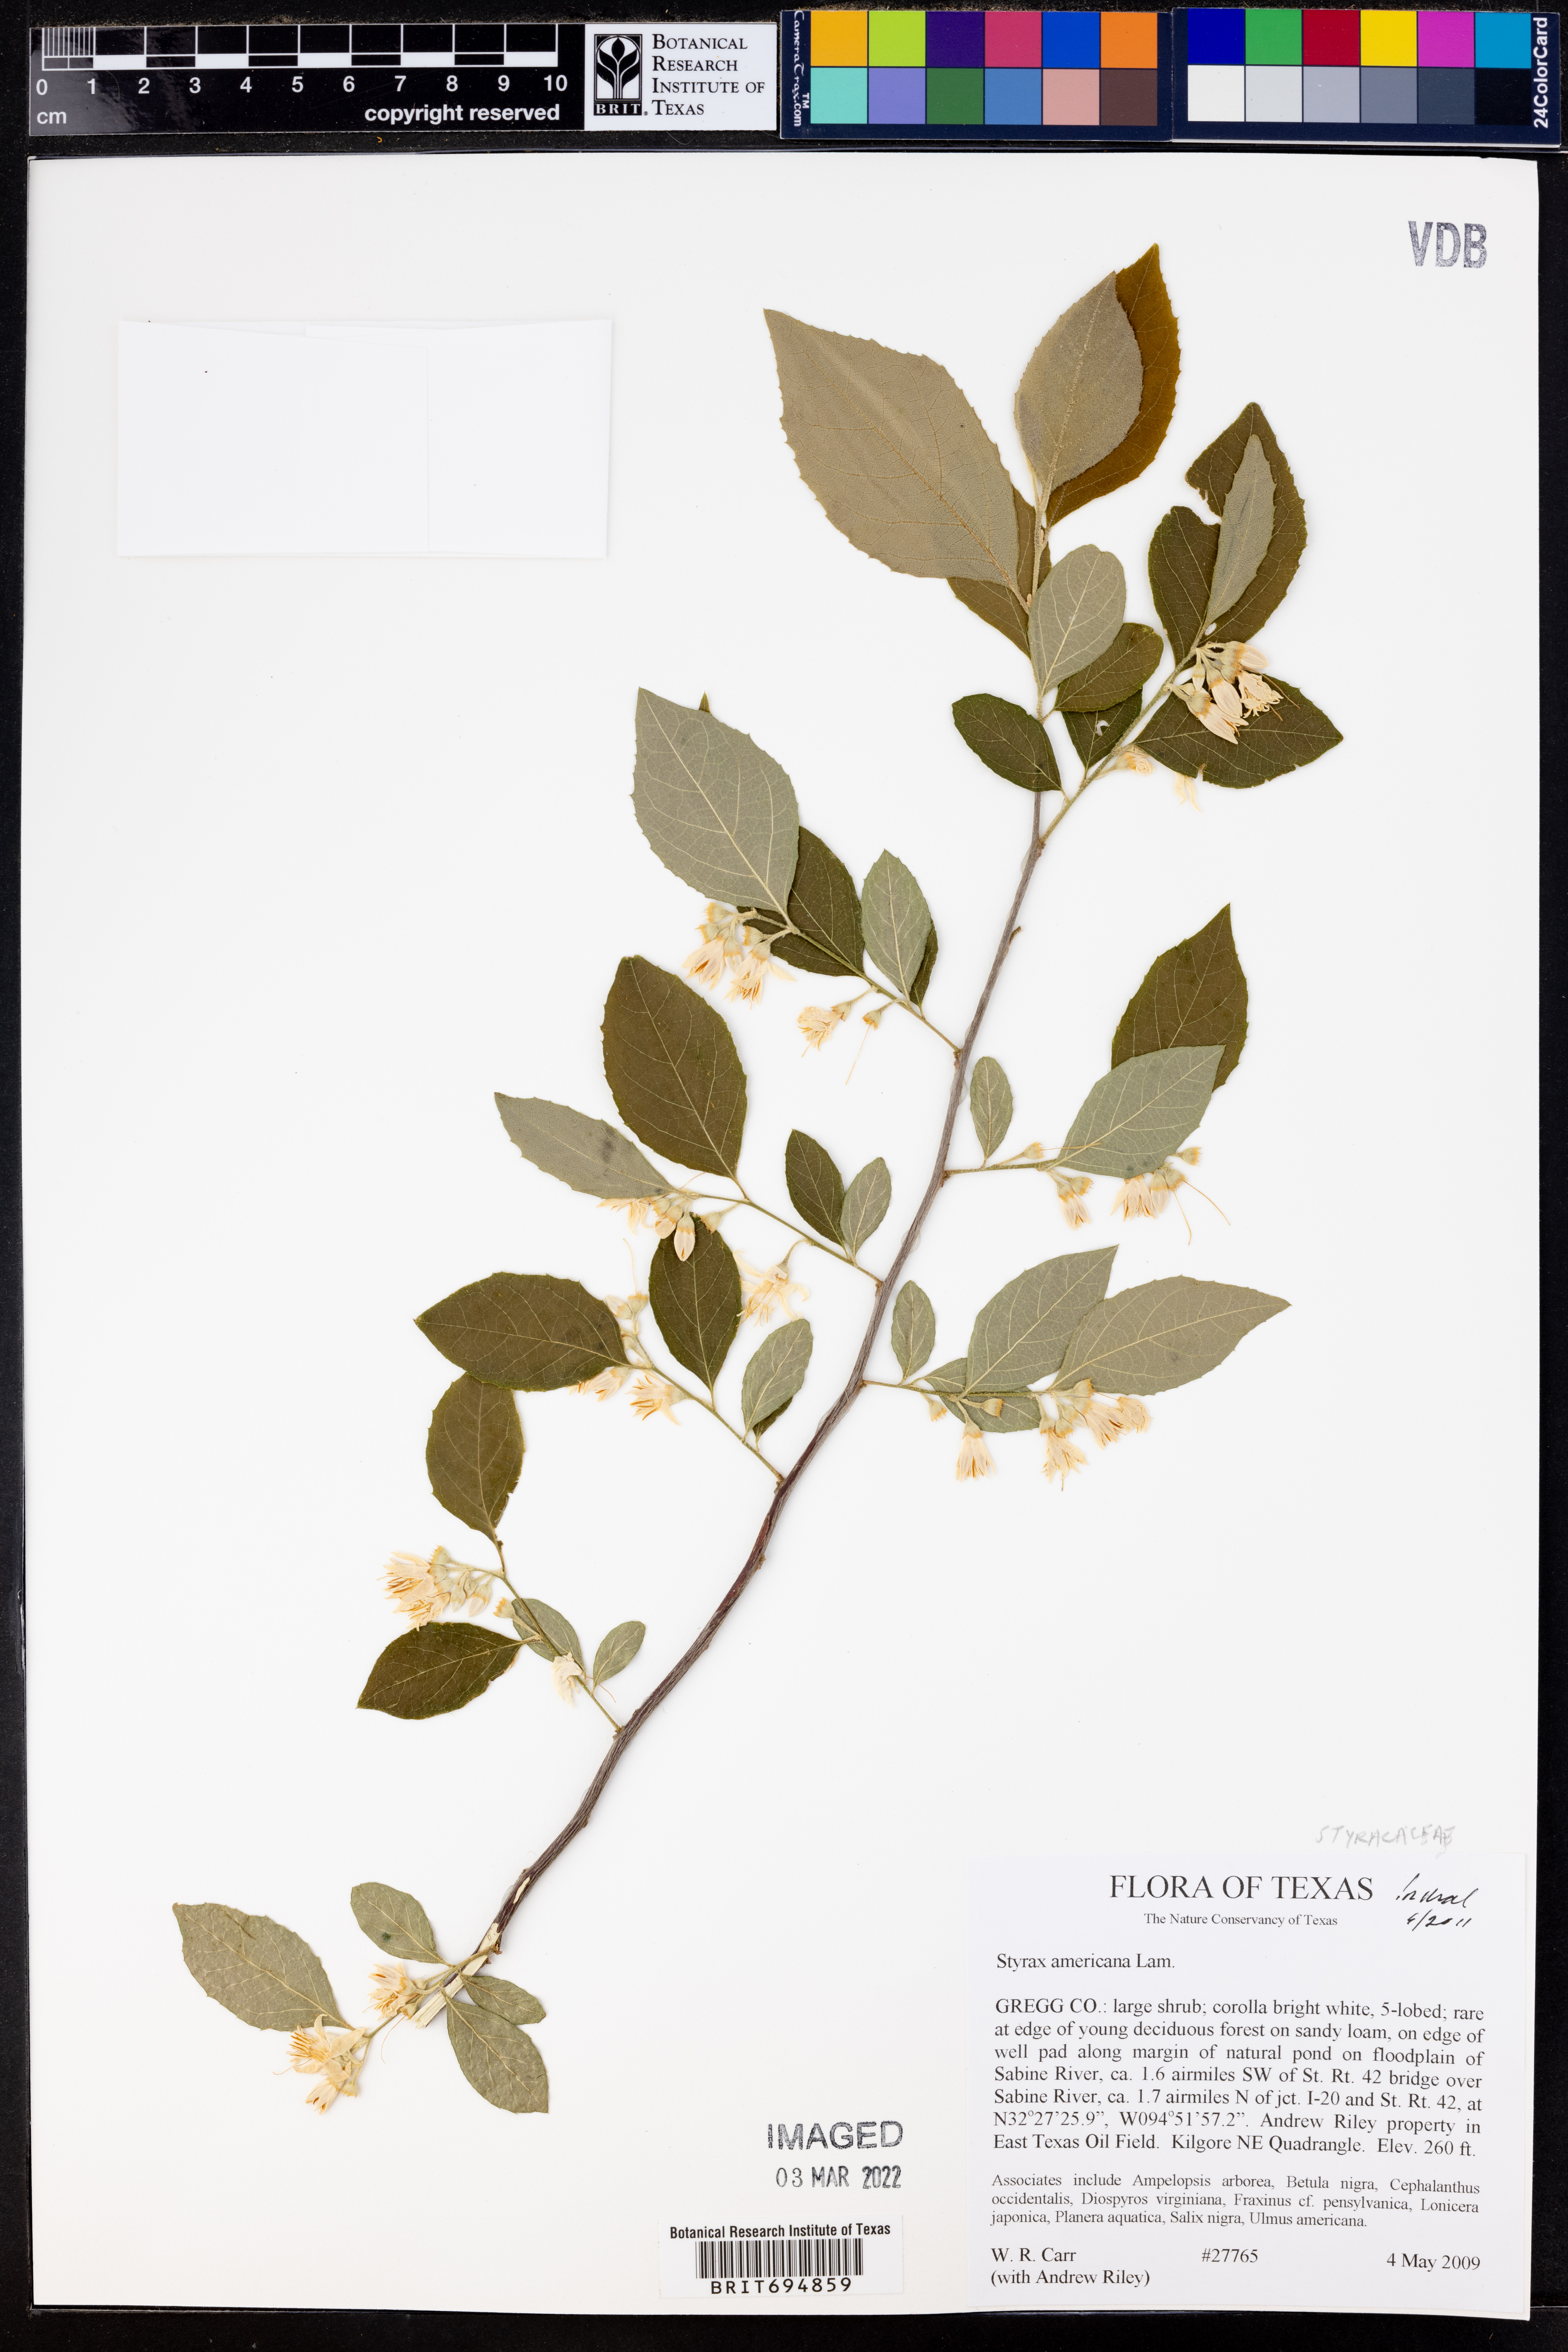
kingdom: Plantae
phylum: Tracheophyta
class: Magnoliopsida
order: Ericales
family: Styracaceae
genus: Styrax
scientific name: Styrax americanus
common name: American snowbell
